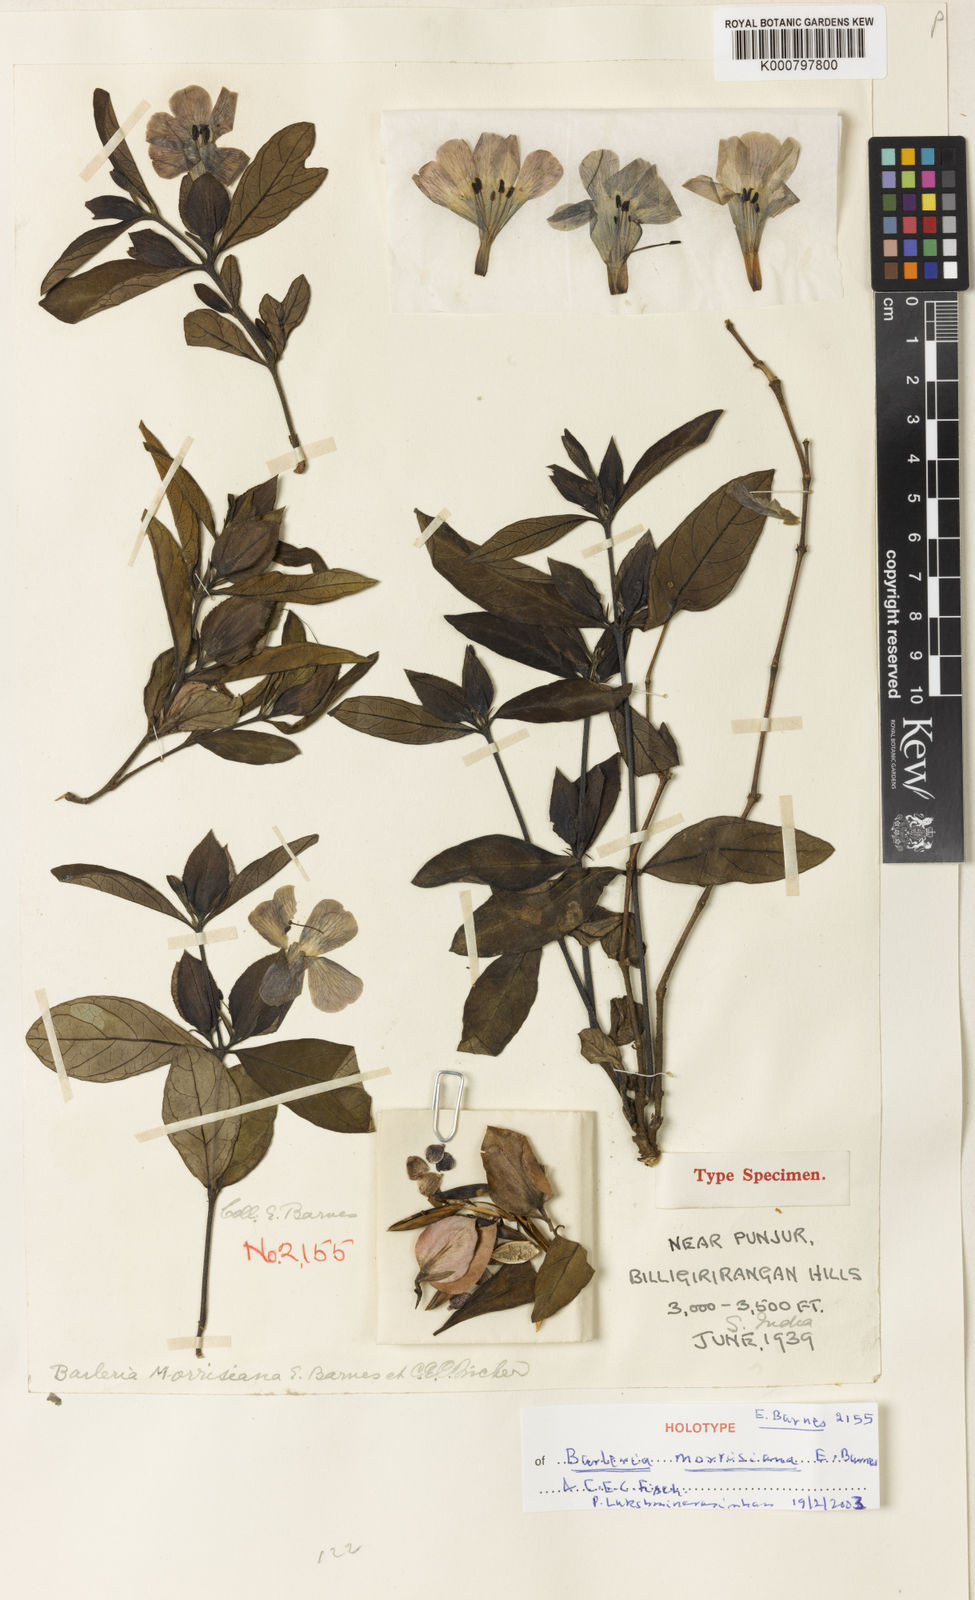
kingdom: Plantae
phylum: Tracheophyta
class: Magnoliopsida
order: Lamiales
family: Acanthaceae
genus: Barleria
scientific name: Barleria montana
